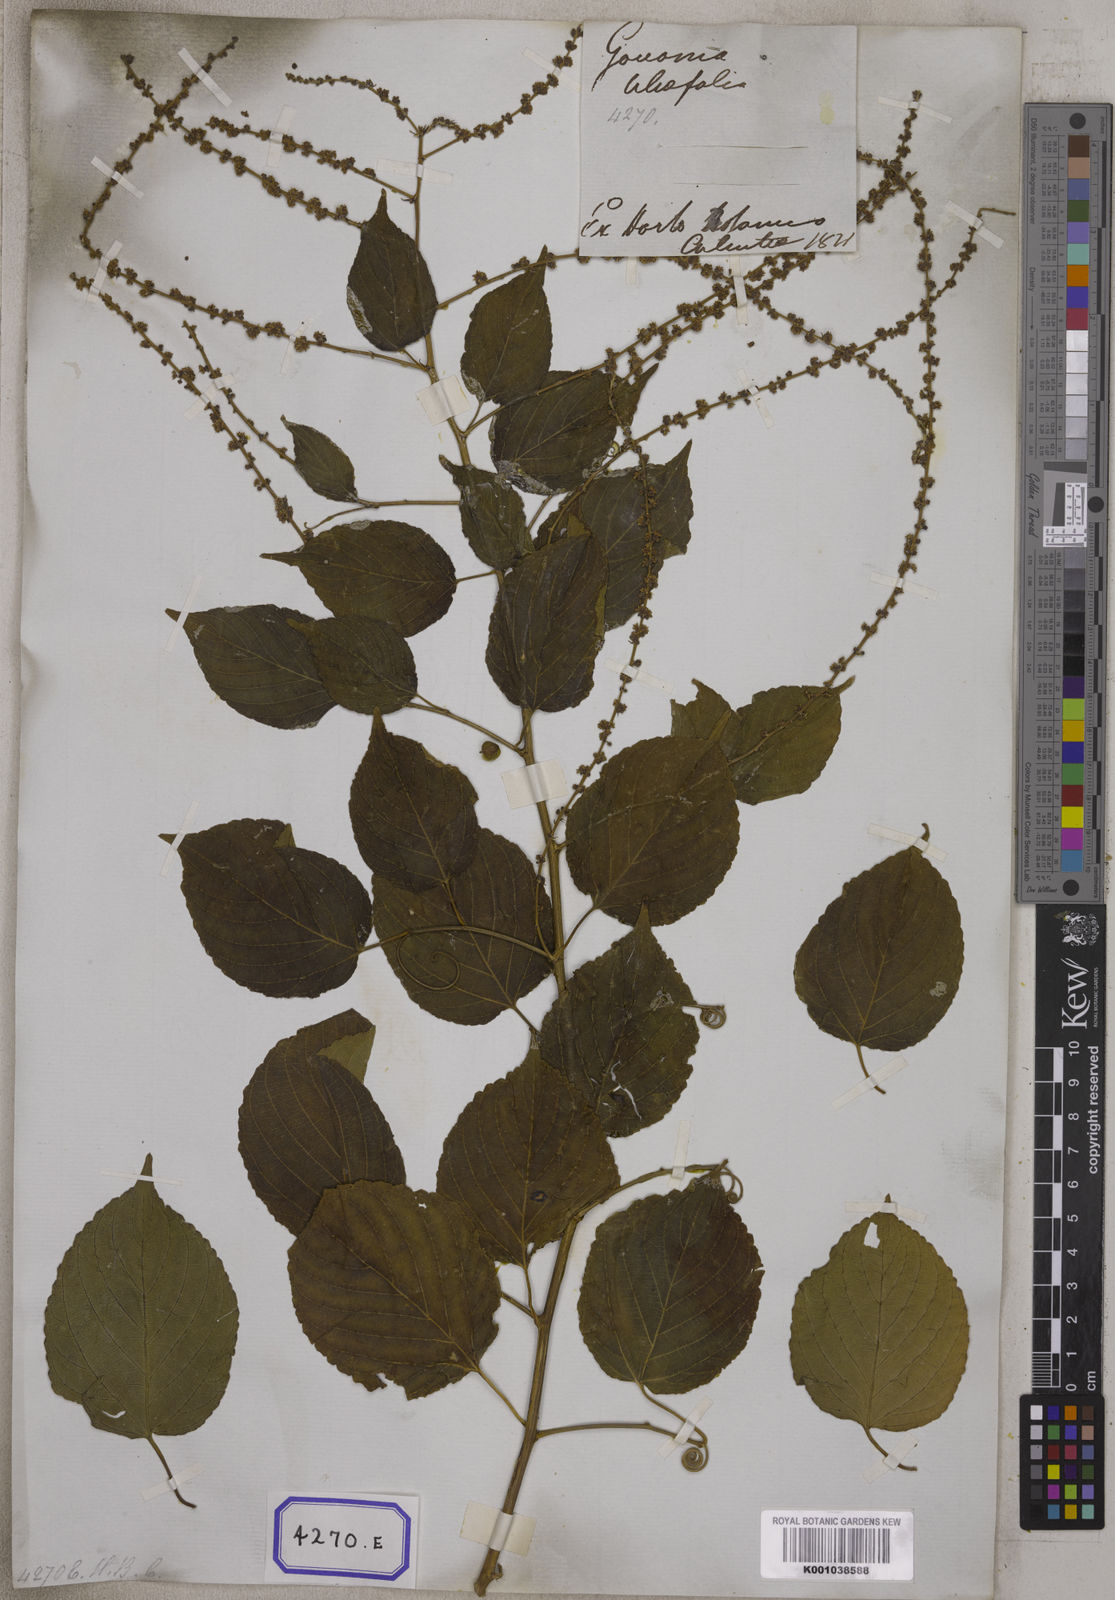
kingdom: Plantae
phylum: Tracheophyta
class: Magnoliopsida
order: Rosales
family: Rhamnaceae
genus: Gouania
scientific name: Gouania leptostachya
